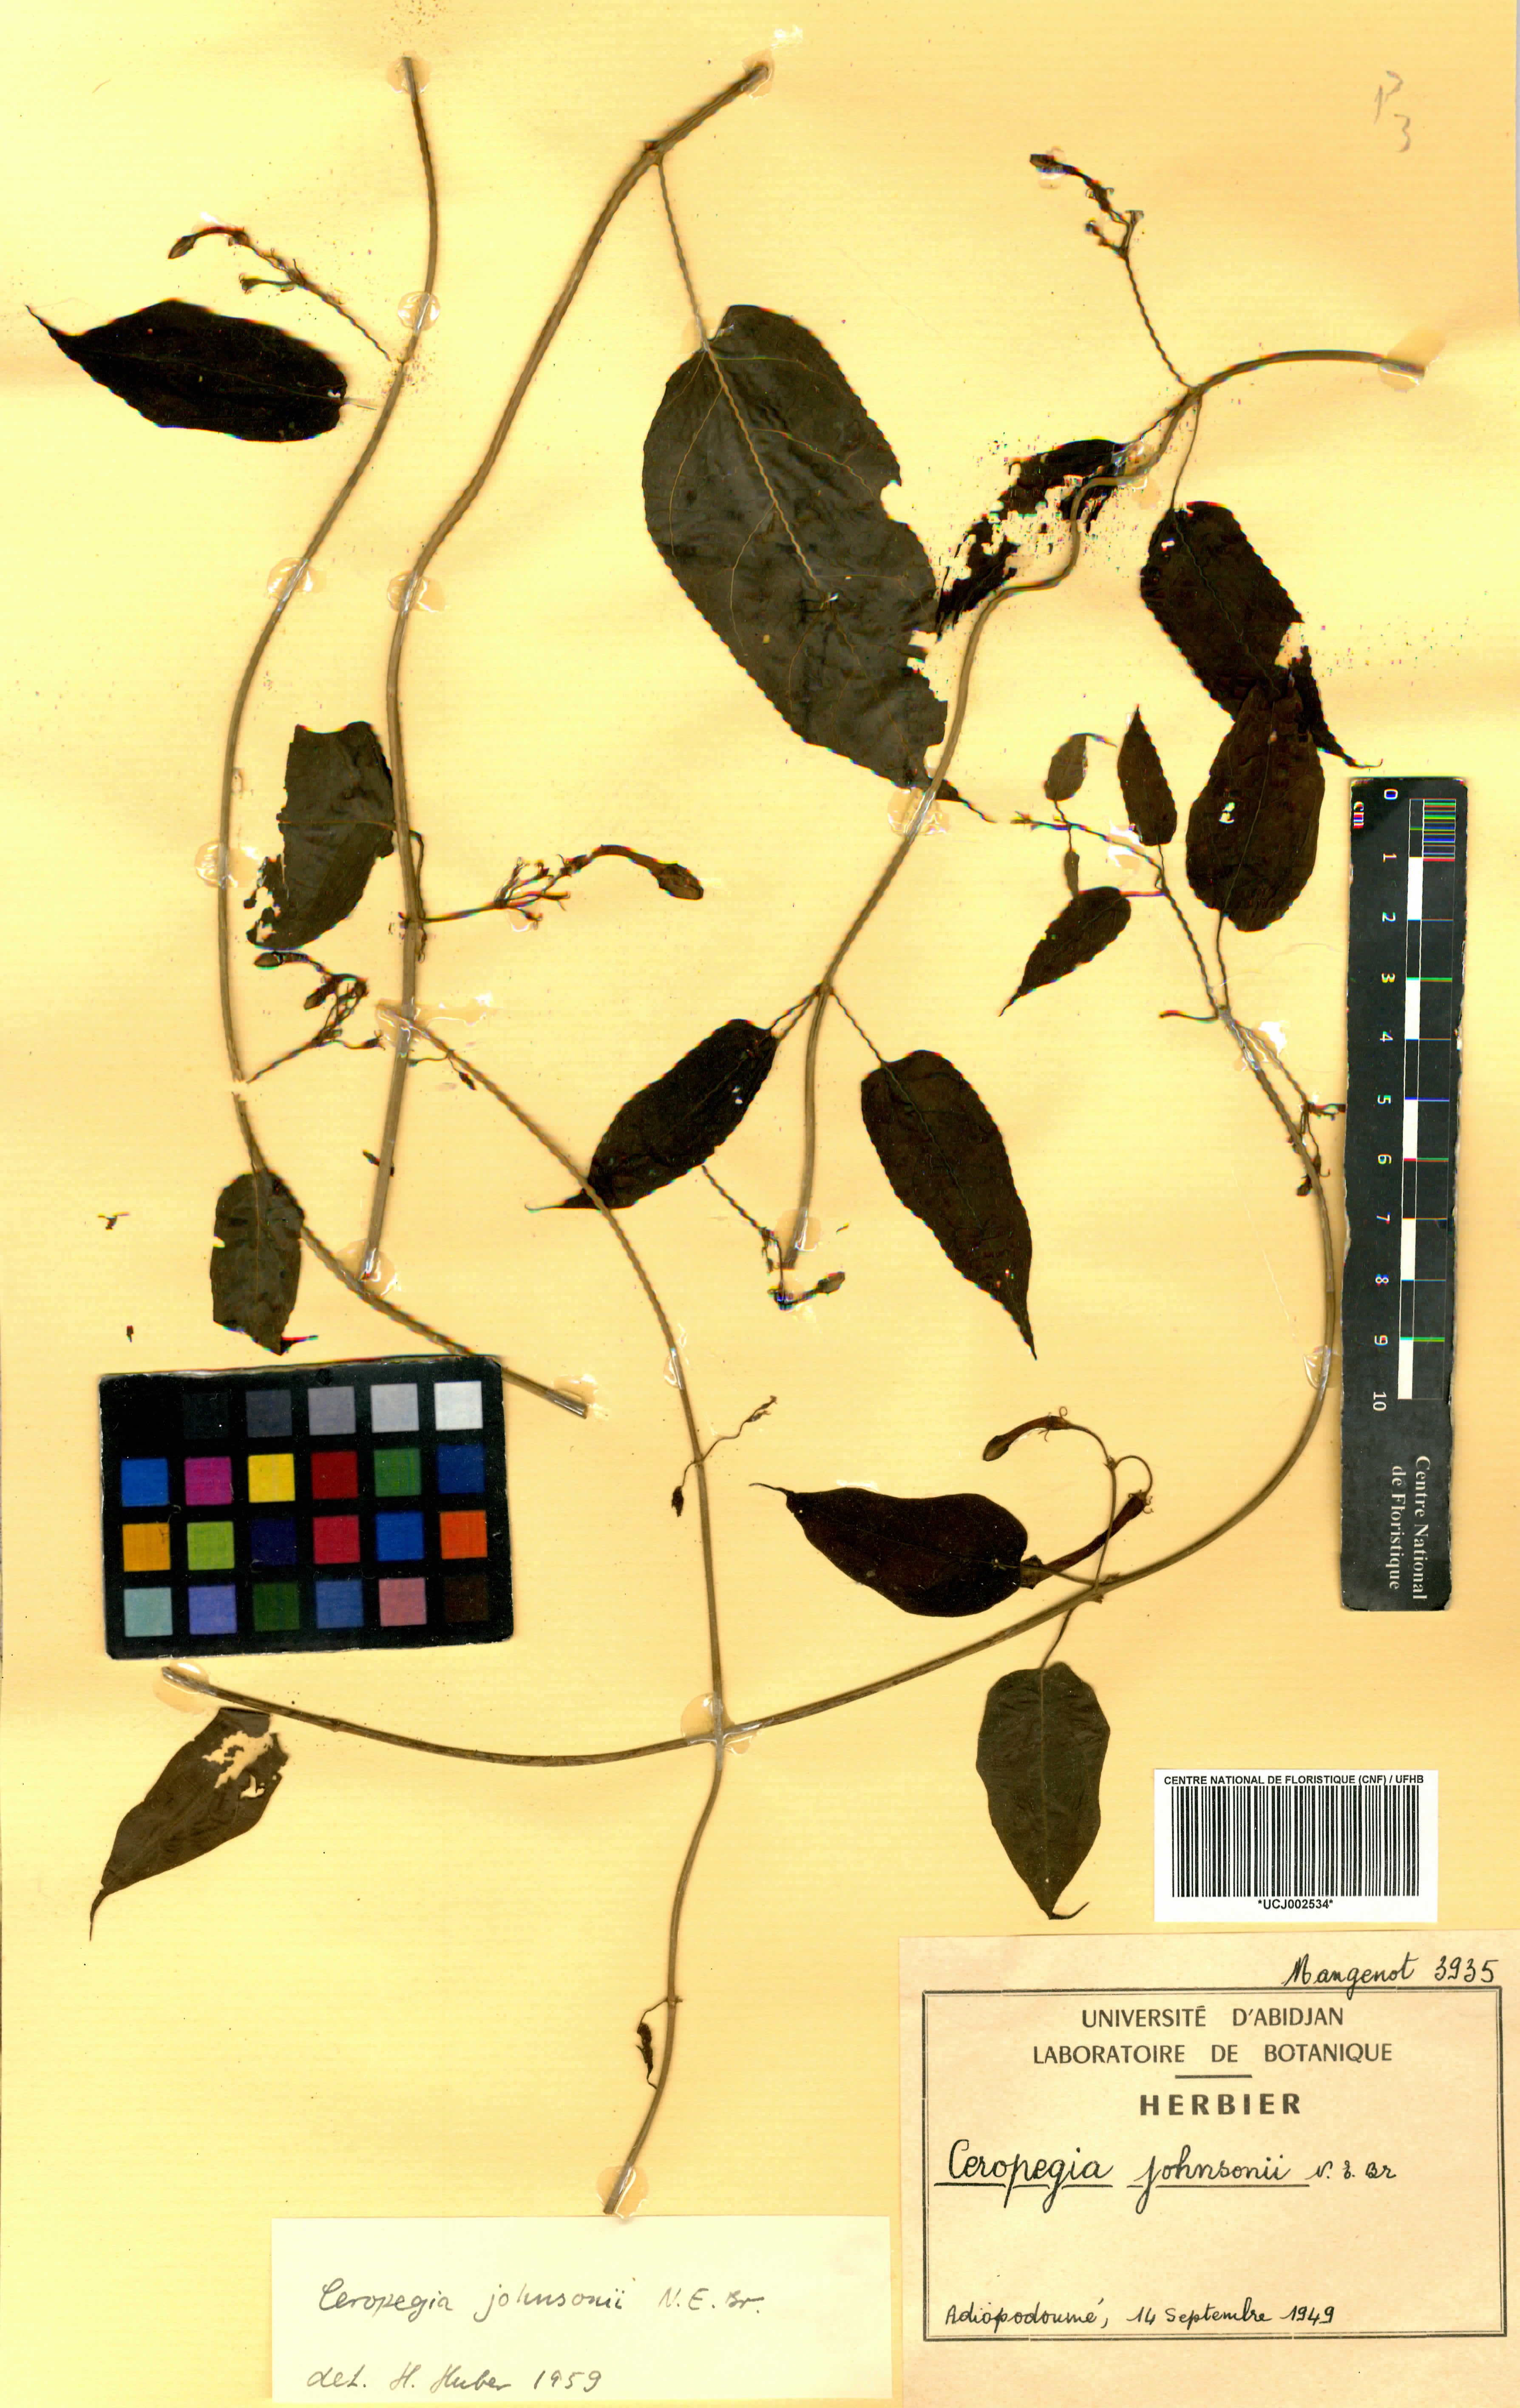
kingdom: Plantae
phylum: Tracheophyta
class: Magnoliopsida
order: Gentianales
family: Apocynaceae
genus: Ceropegia
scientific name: Ceropegia johnsonii
